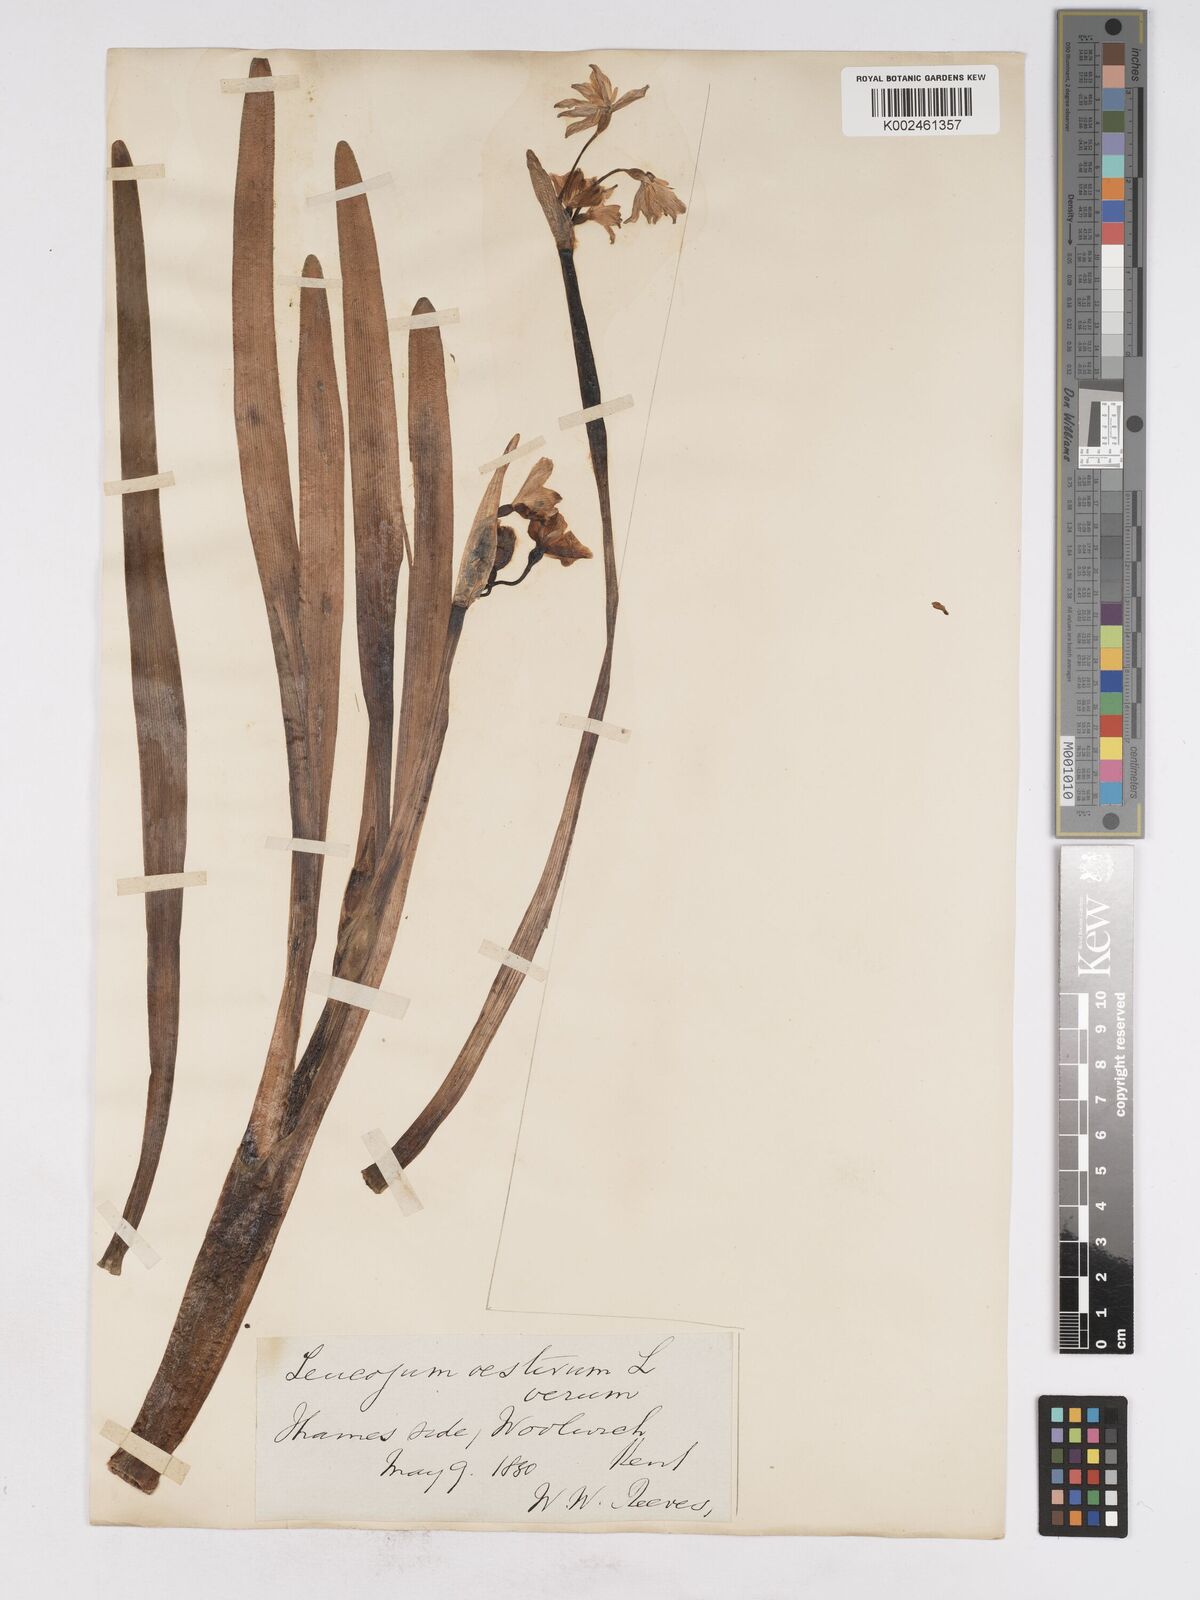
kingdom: Plantae
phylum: Tracheophyta
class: Liliopsida
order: Asparagales
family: Amaryllidaceae
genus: Leucojum
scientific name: Leucojum aestivum
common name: Summer snowflake
